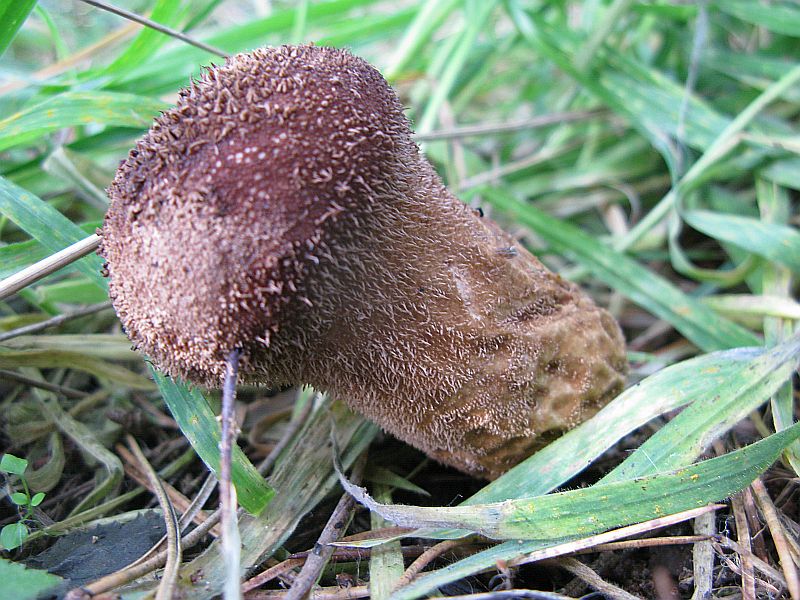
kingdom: Fungi
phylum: Basidiomycota
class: Agaricomycetes
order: Agaricales
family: Lycoperdaceae
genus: Lycoperdon
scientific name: Lycoperdon nigrescens
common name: sortagtig støvbold
